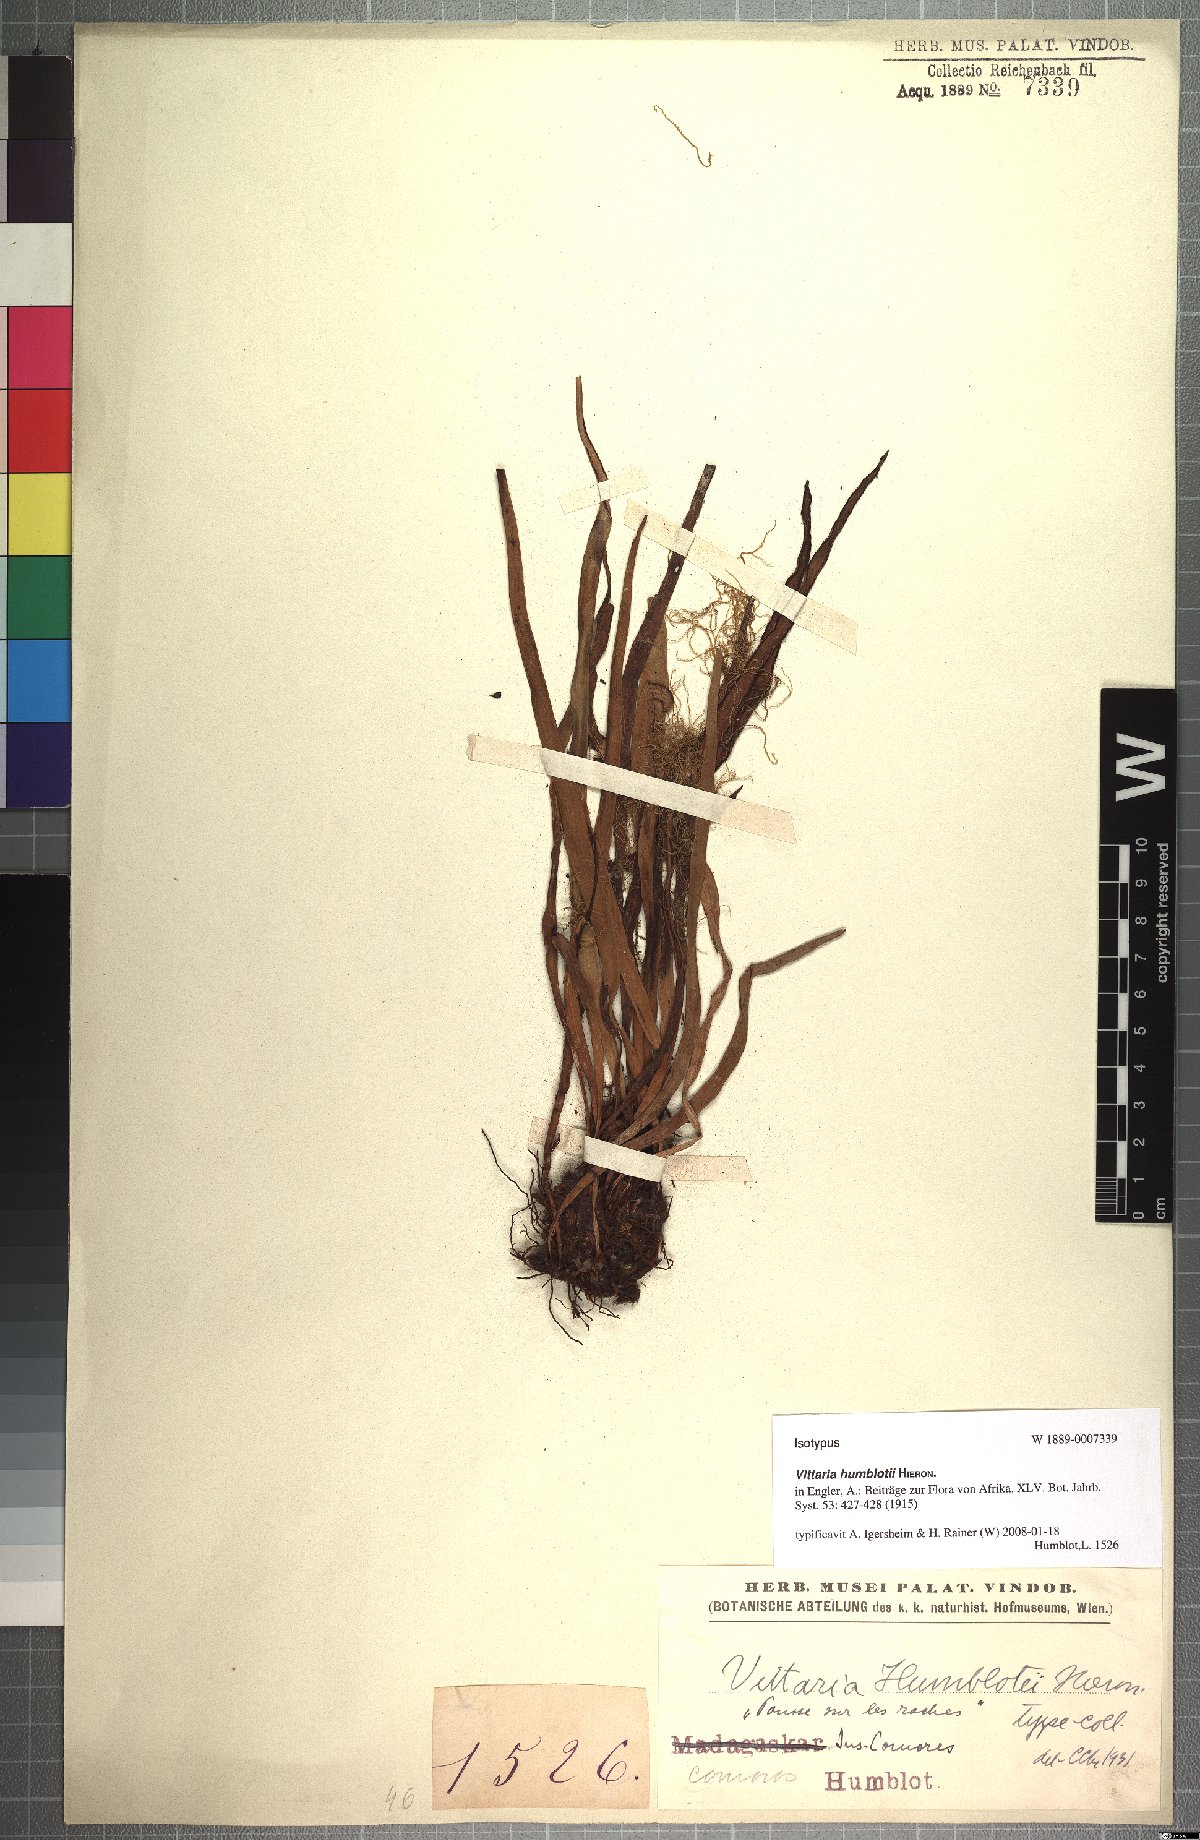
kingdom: Plantae
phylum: Tracheophyta
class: Polypodiopsida
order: Polypodiales
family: Pteridaceae
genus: Haplopteris
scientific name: Haplopteris humblotii
